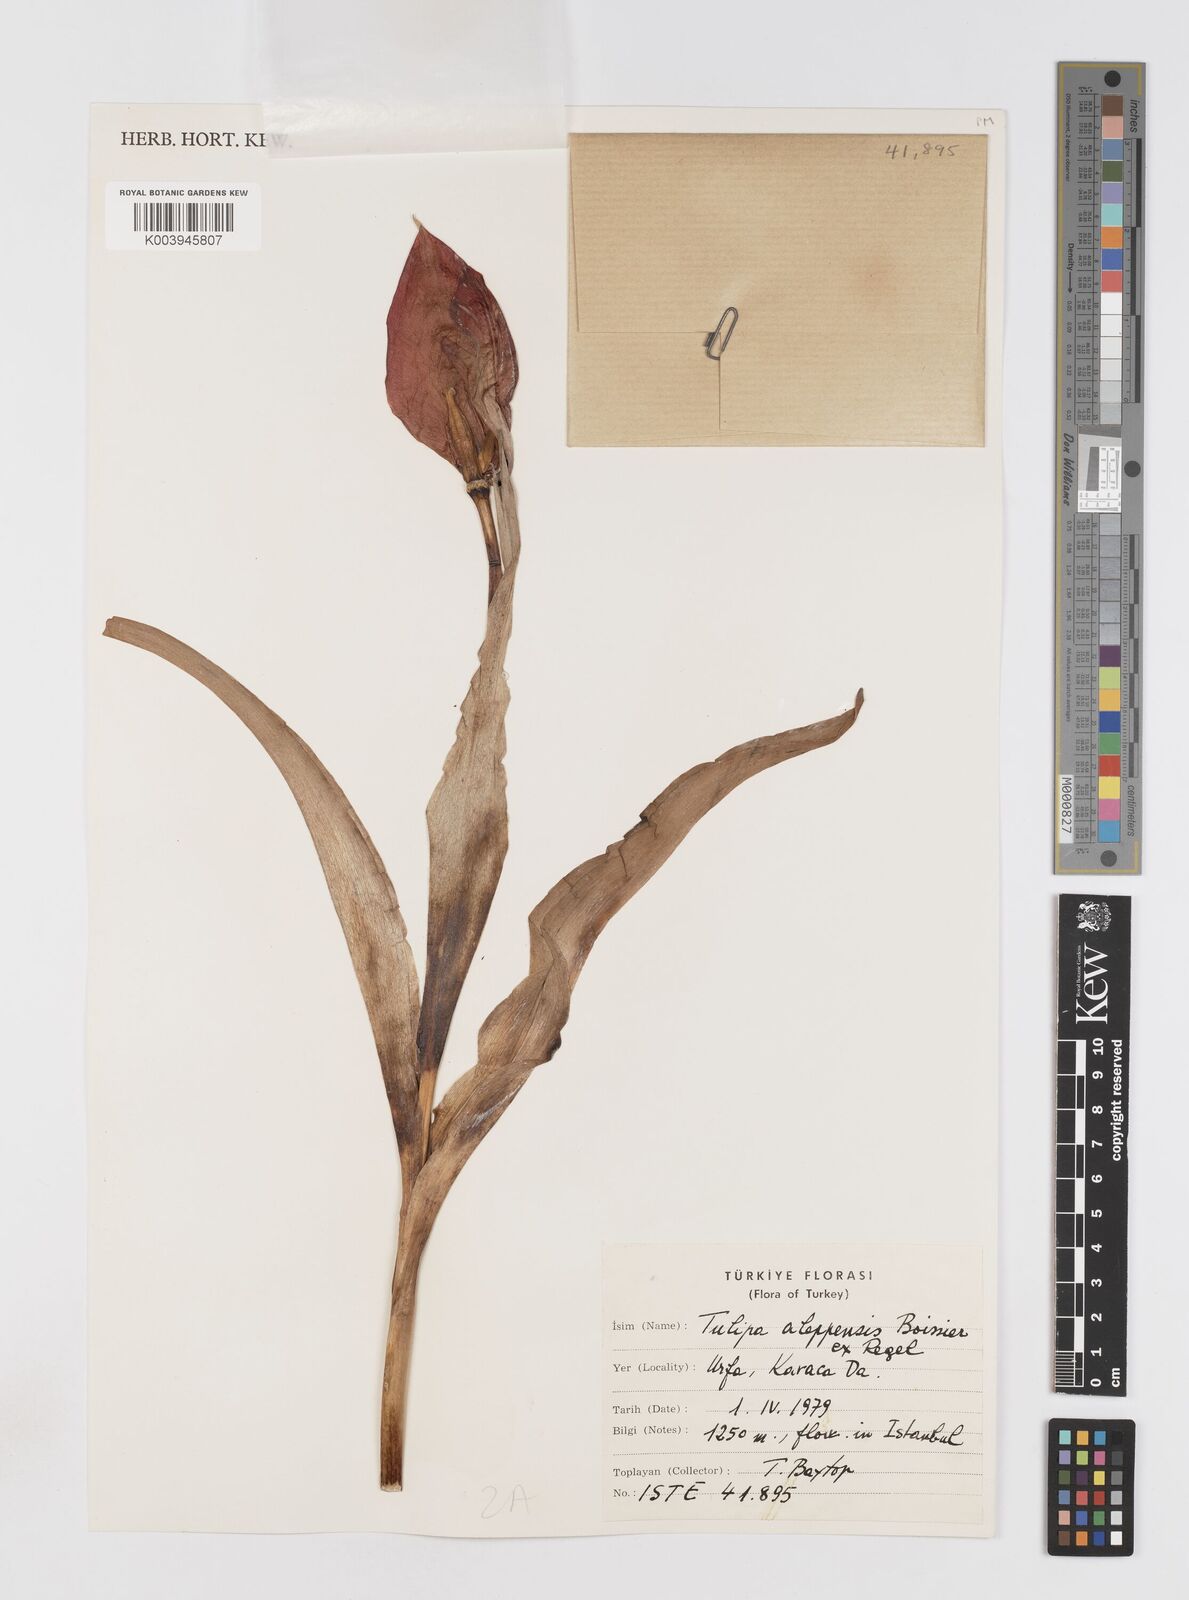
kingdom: Plantae
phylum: Tracheophyta
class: Liliopsida
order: Liliales
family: Liliaceae
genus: Tulipa
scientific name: Tulipa aleppensis
